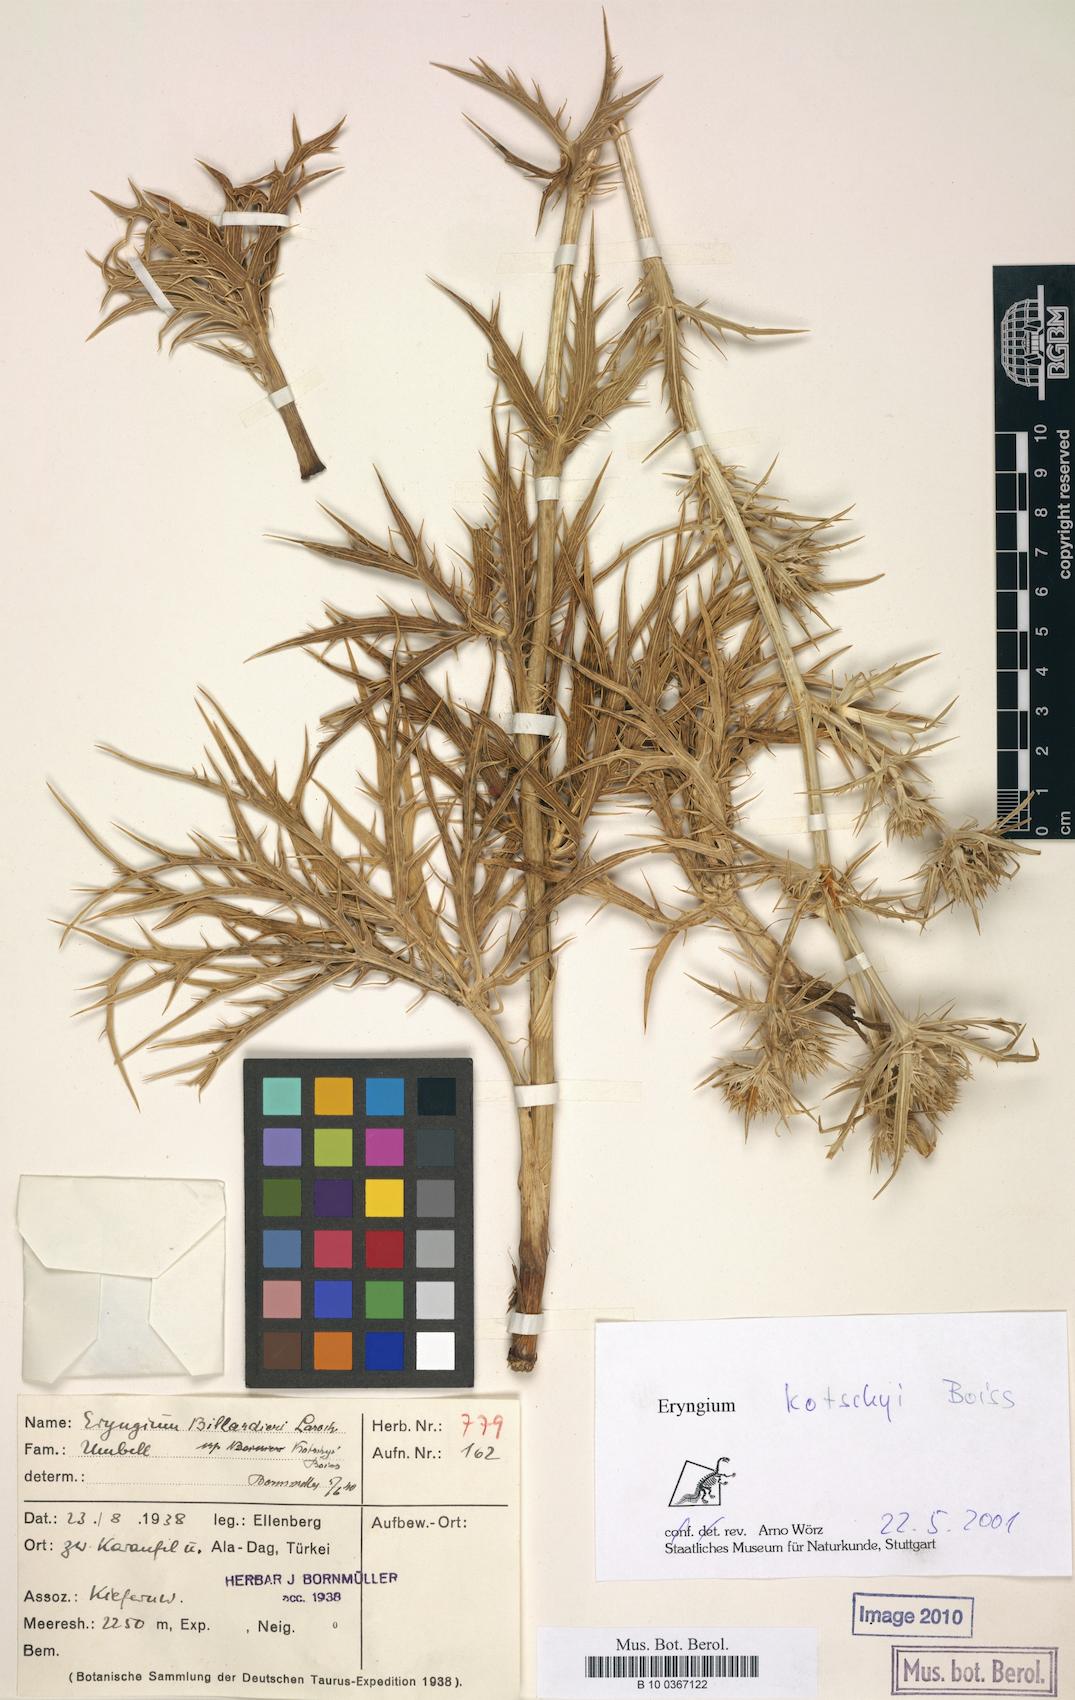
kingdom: Plantae
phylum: Tracheophyta
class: Magnoliopsida
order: Apiales
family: Apiaceae
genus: Eryngium
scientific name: Eryngium kotschyi
